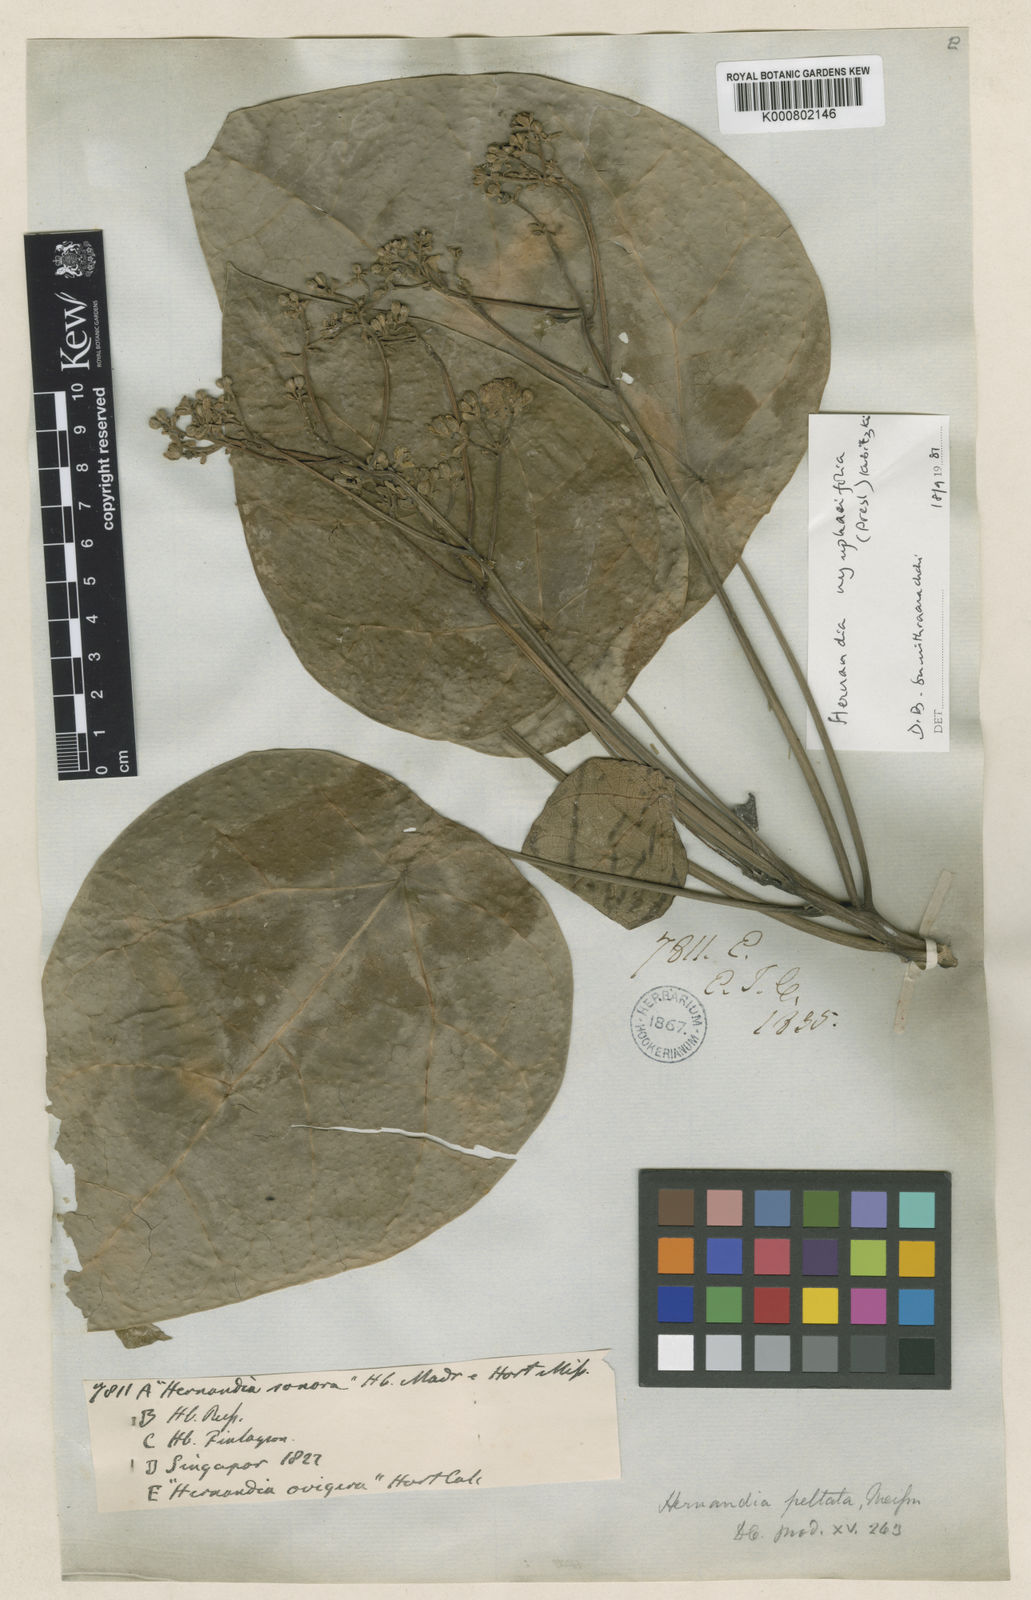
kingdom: Plantae
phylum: Tracheophyta
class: Magnoliopsida
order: Laurales
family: Hernandiaceae
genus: Hernandia
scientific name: Hernandia nymphaeifolia
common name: Sea hearse
